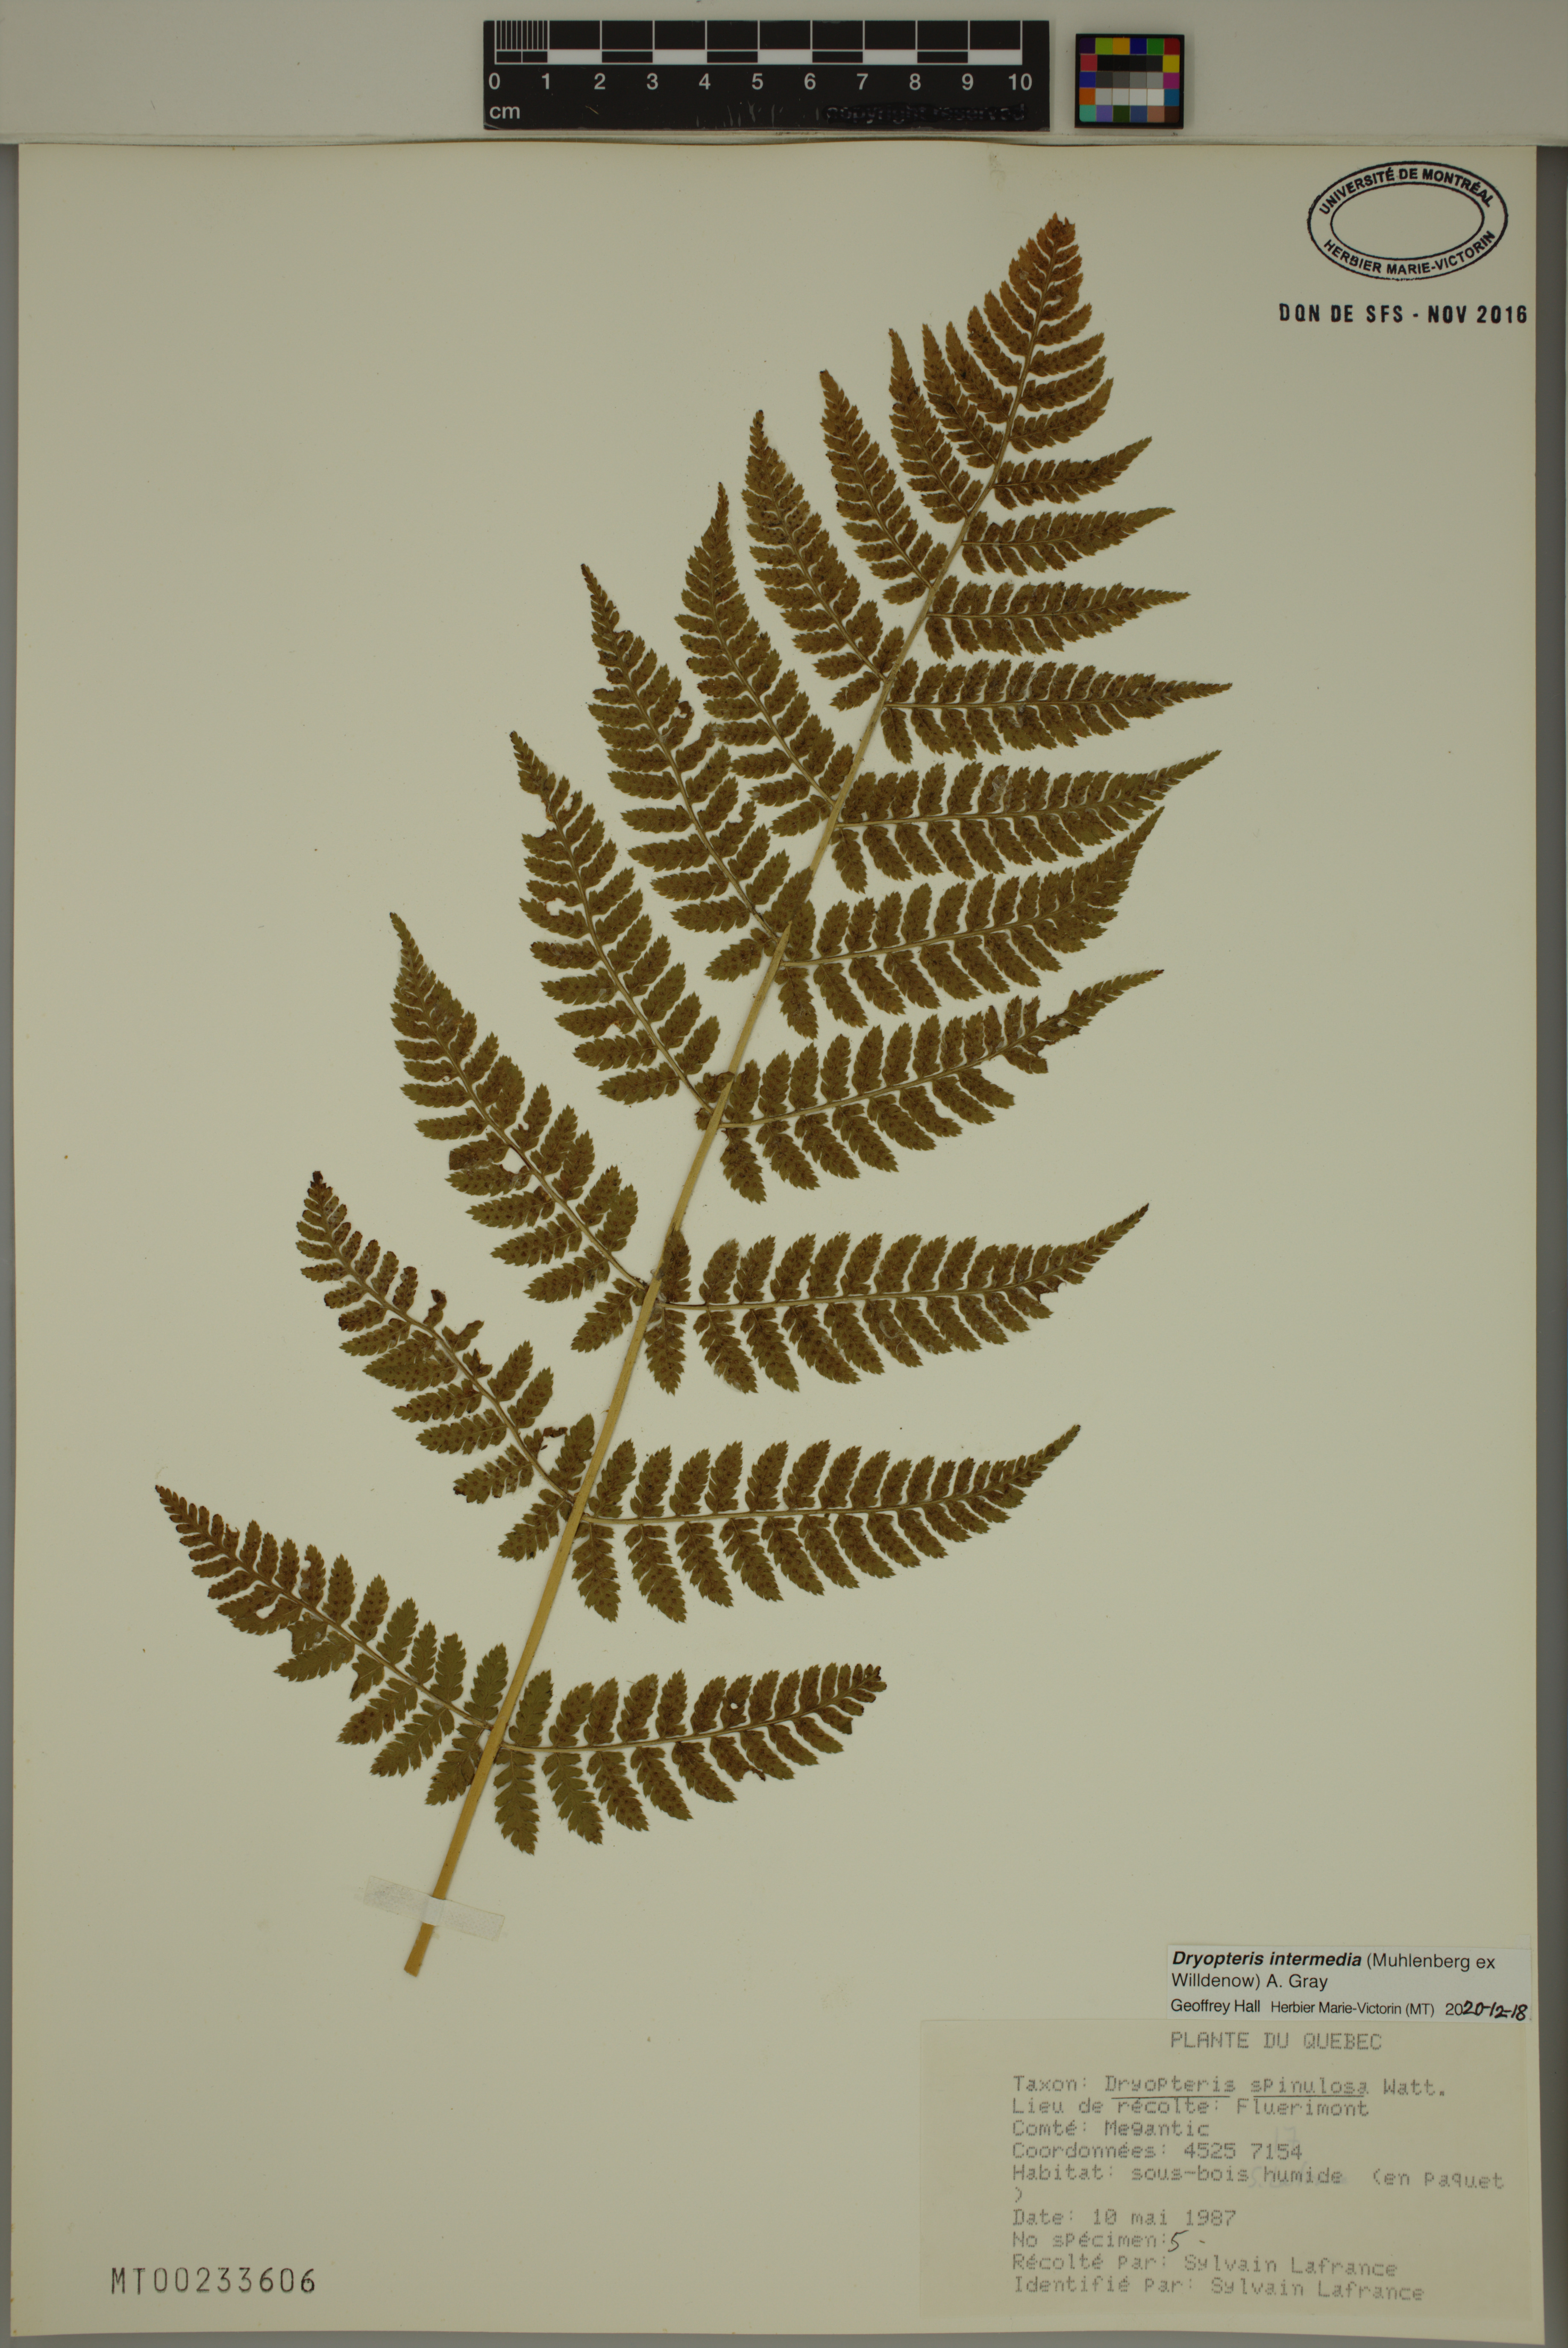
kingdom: Plantae
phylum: Tracheophyta
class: Polypodiopsida
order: Polypodiales
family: Dryopteridaceae
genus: Dryopteris
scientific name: Dryopteris intermedia
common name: Evergreen wood fern
